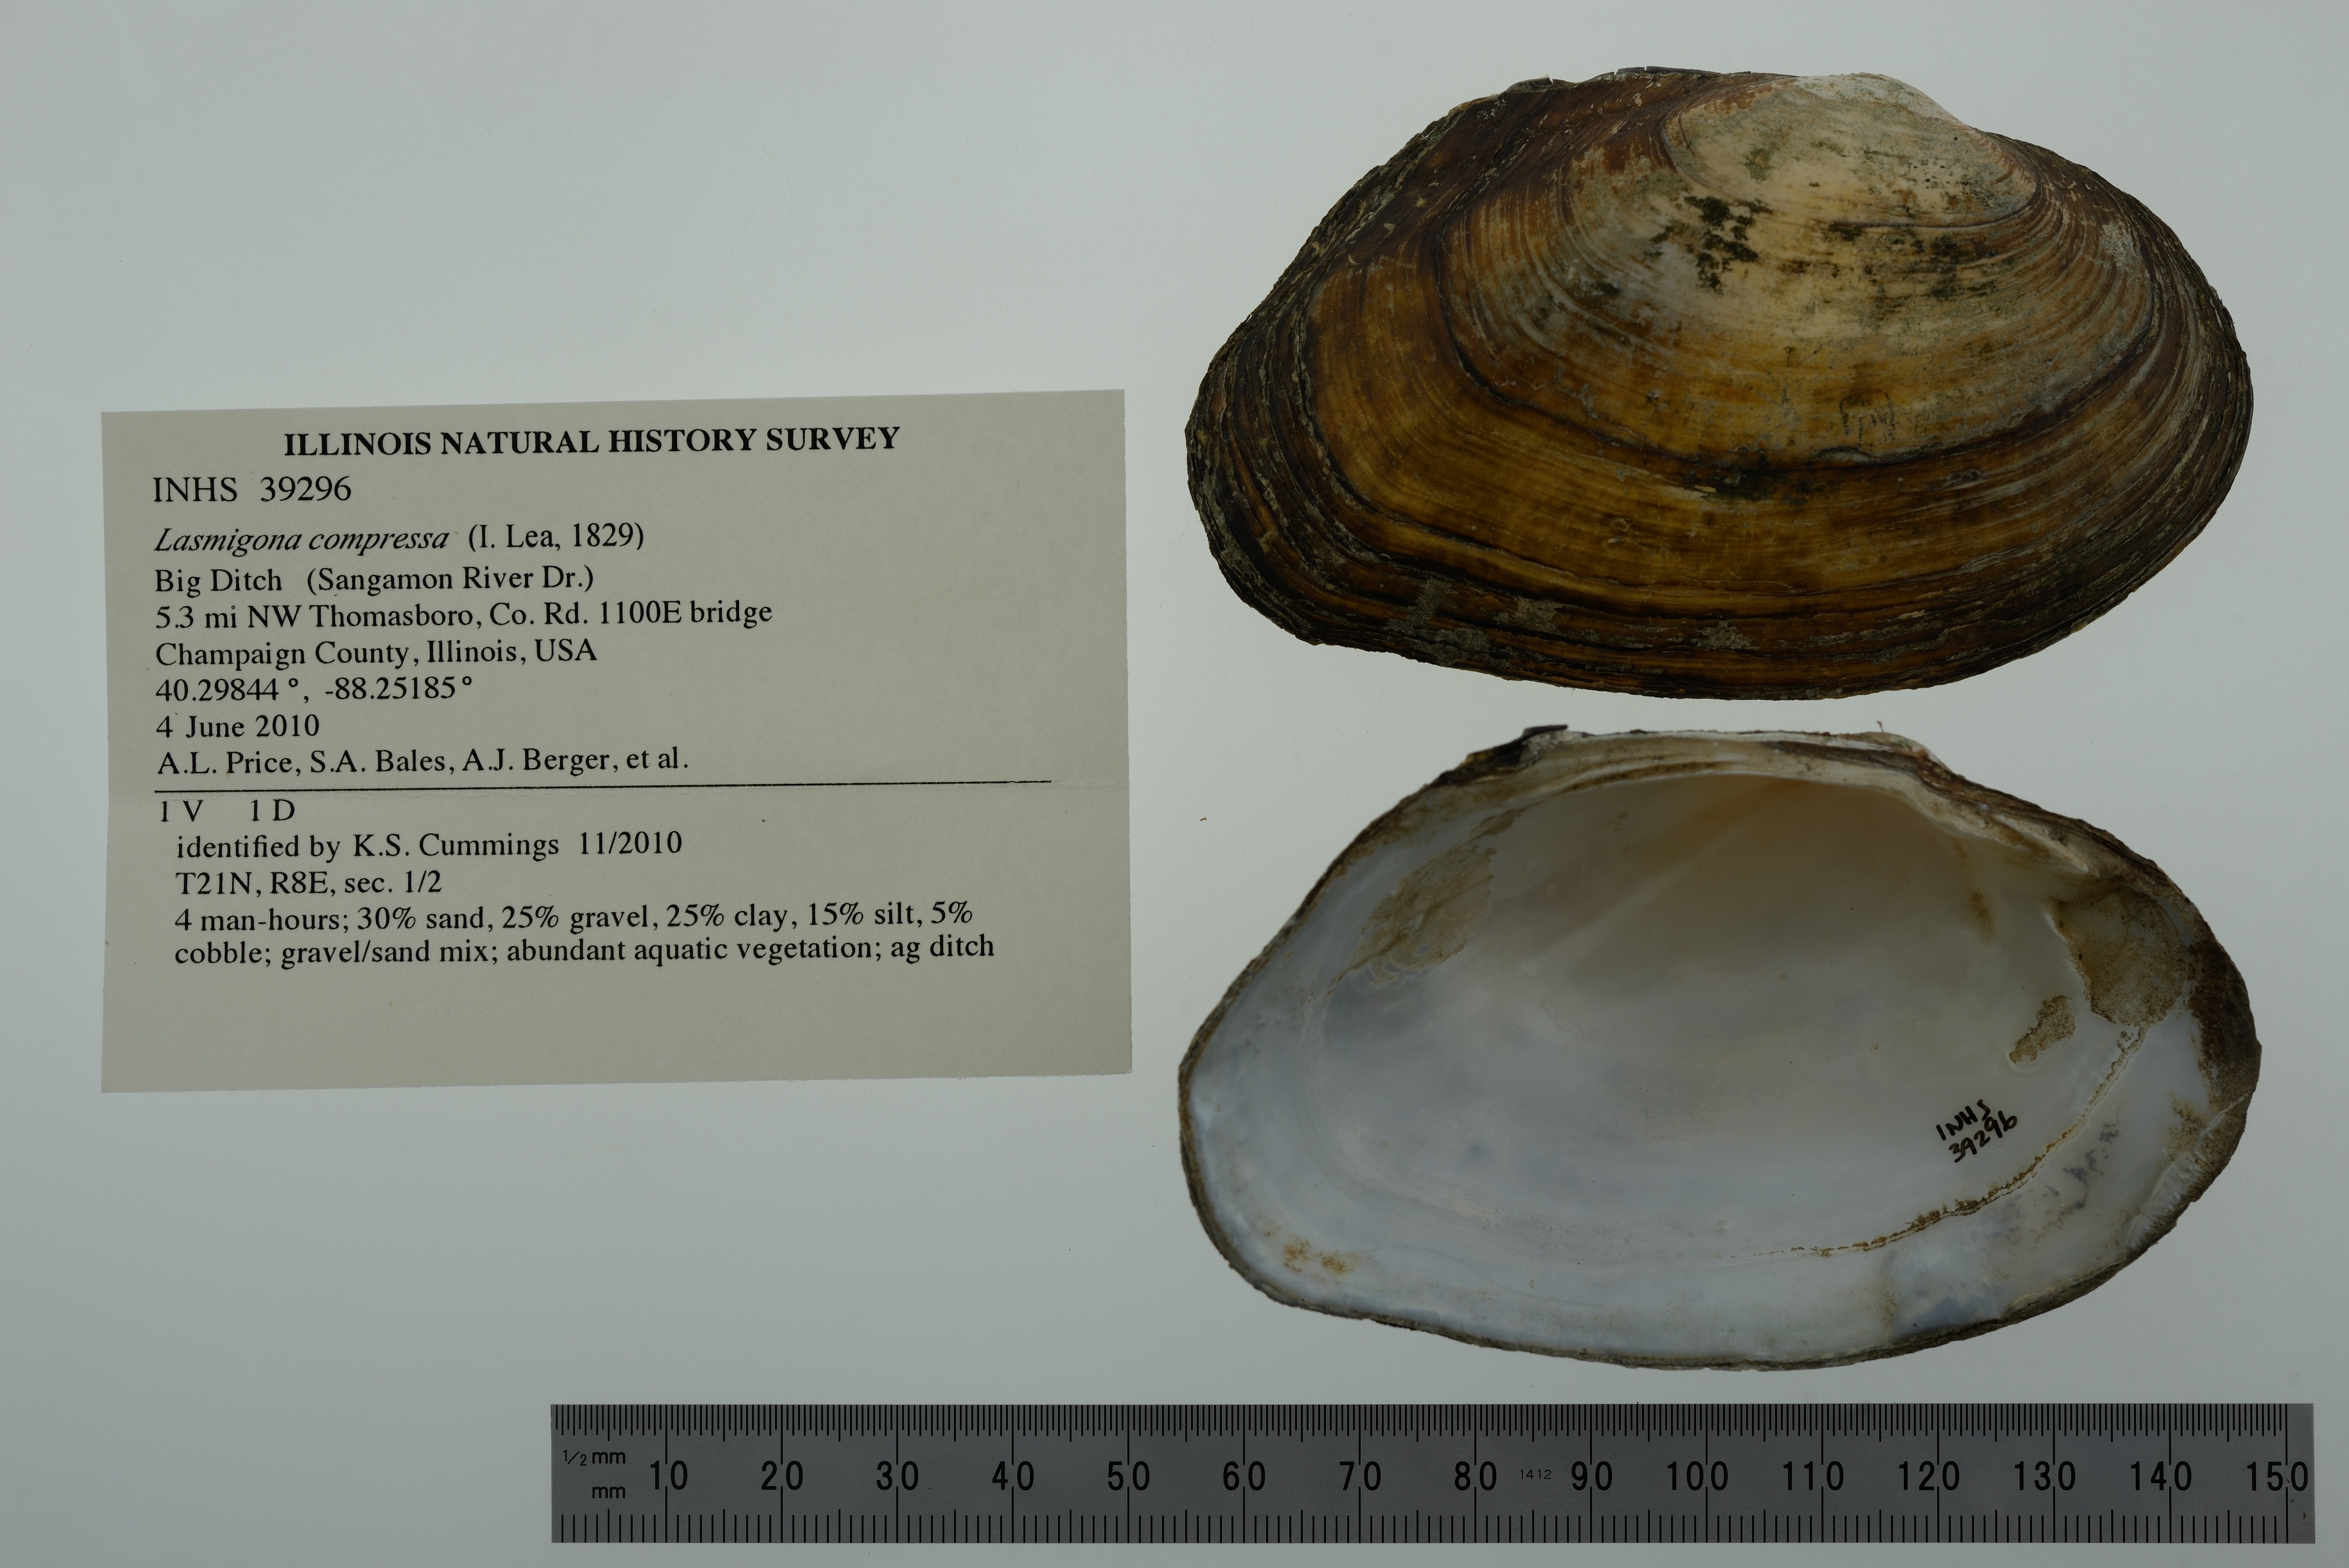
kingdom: Animalia
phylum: Mollusca
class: Bivalvia
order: Unionida
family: Unionidae
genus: Lasmigona
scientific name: Lasmigona compressa
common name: Creek heelsplitter
